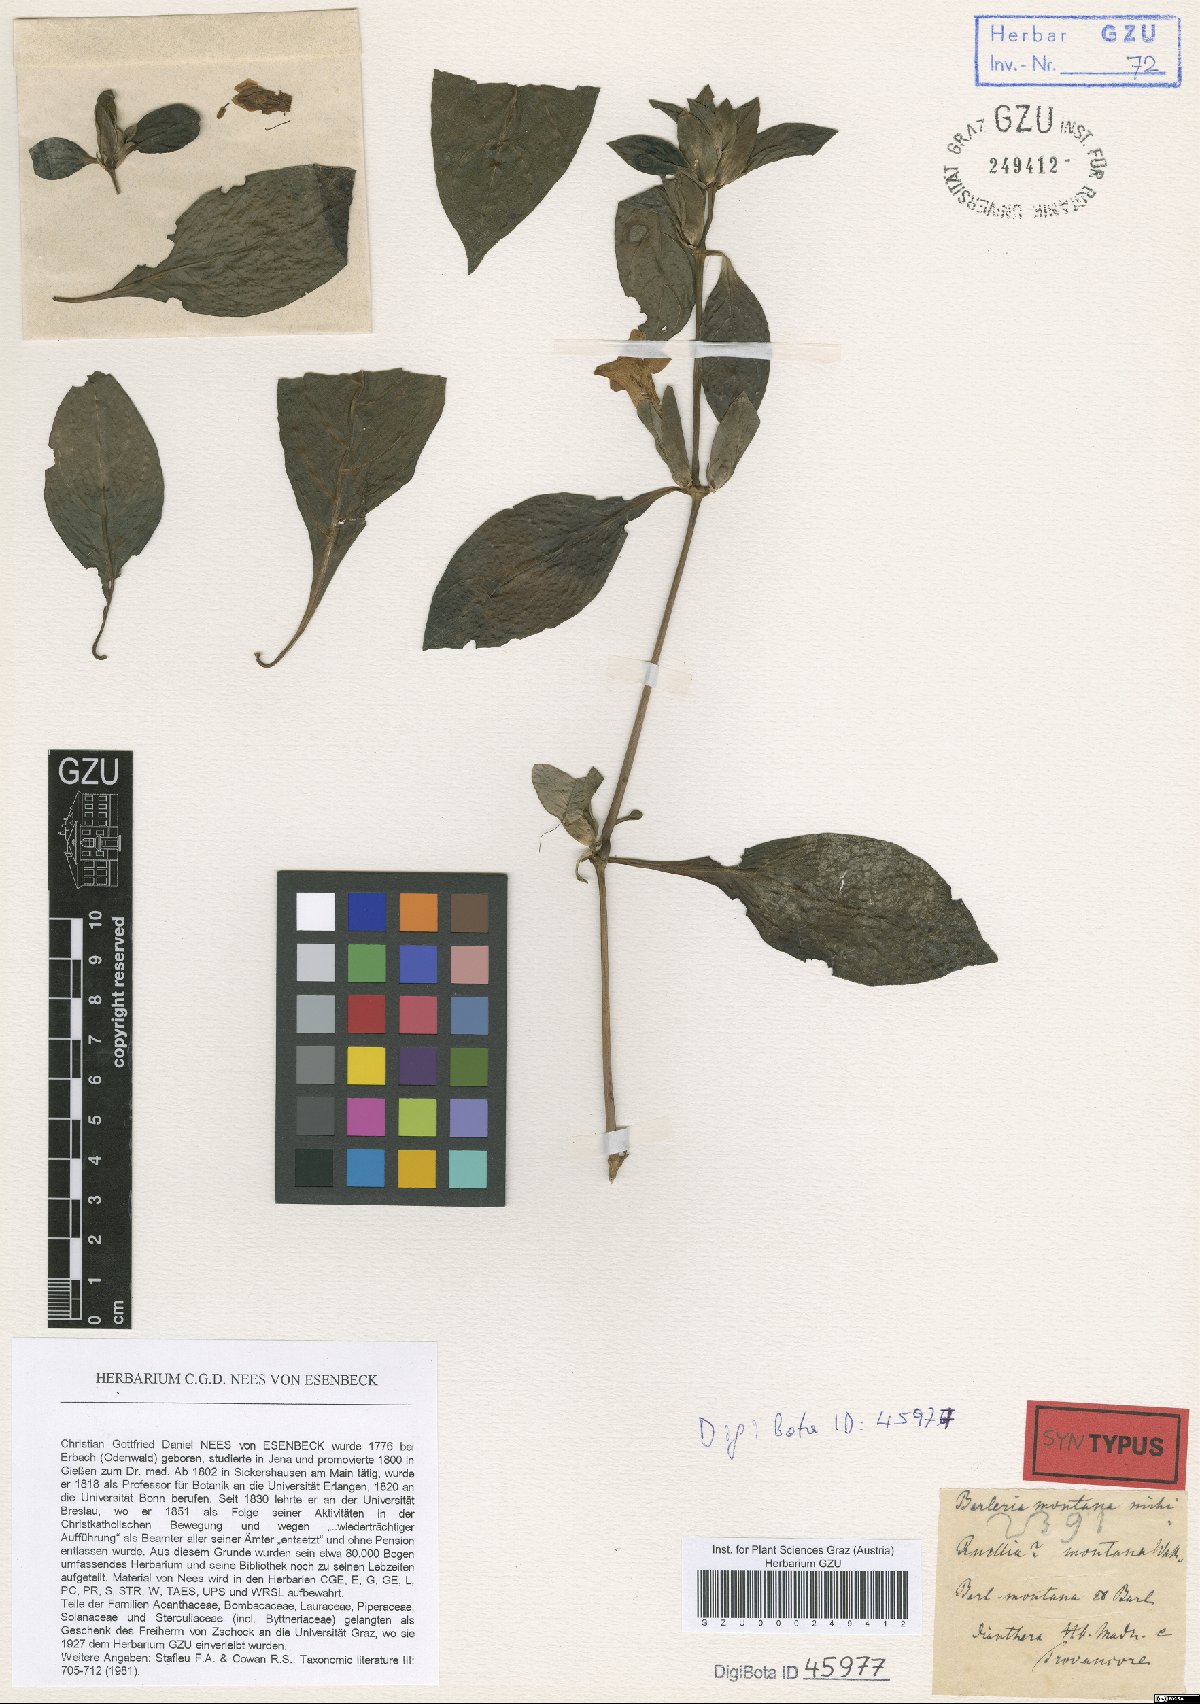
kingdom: Plantae
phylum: Tracheophyta
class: Magnoliopsida
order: Lamiales
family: Acanthaceae
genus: Barleria
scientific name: Barleria montana
